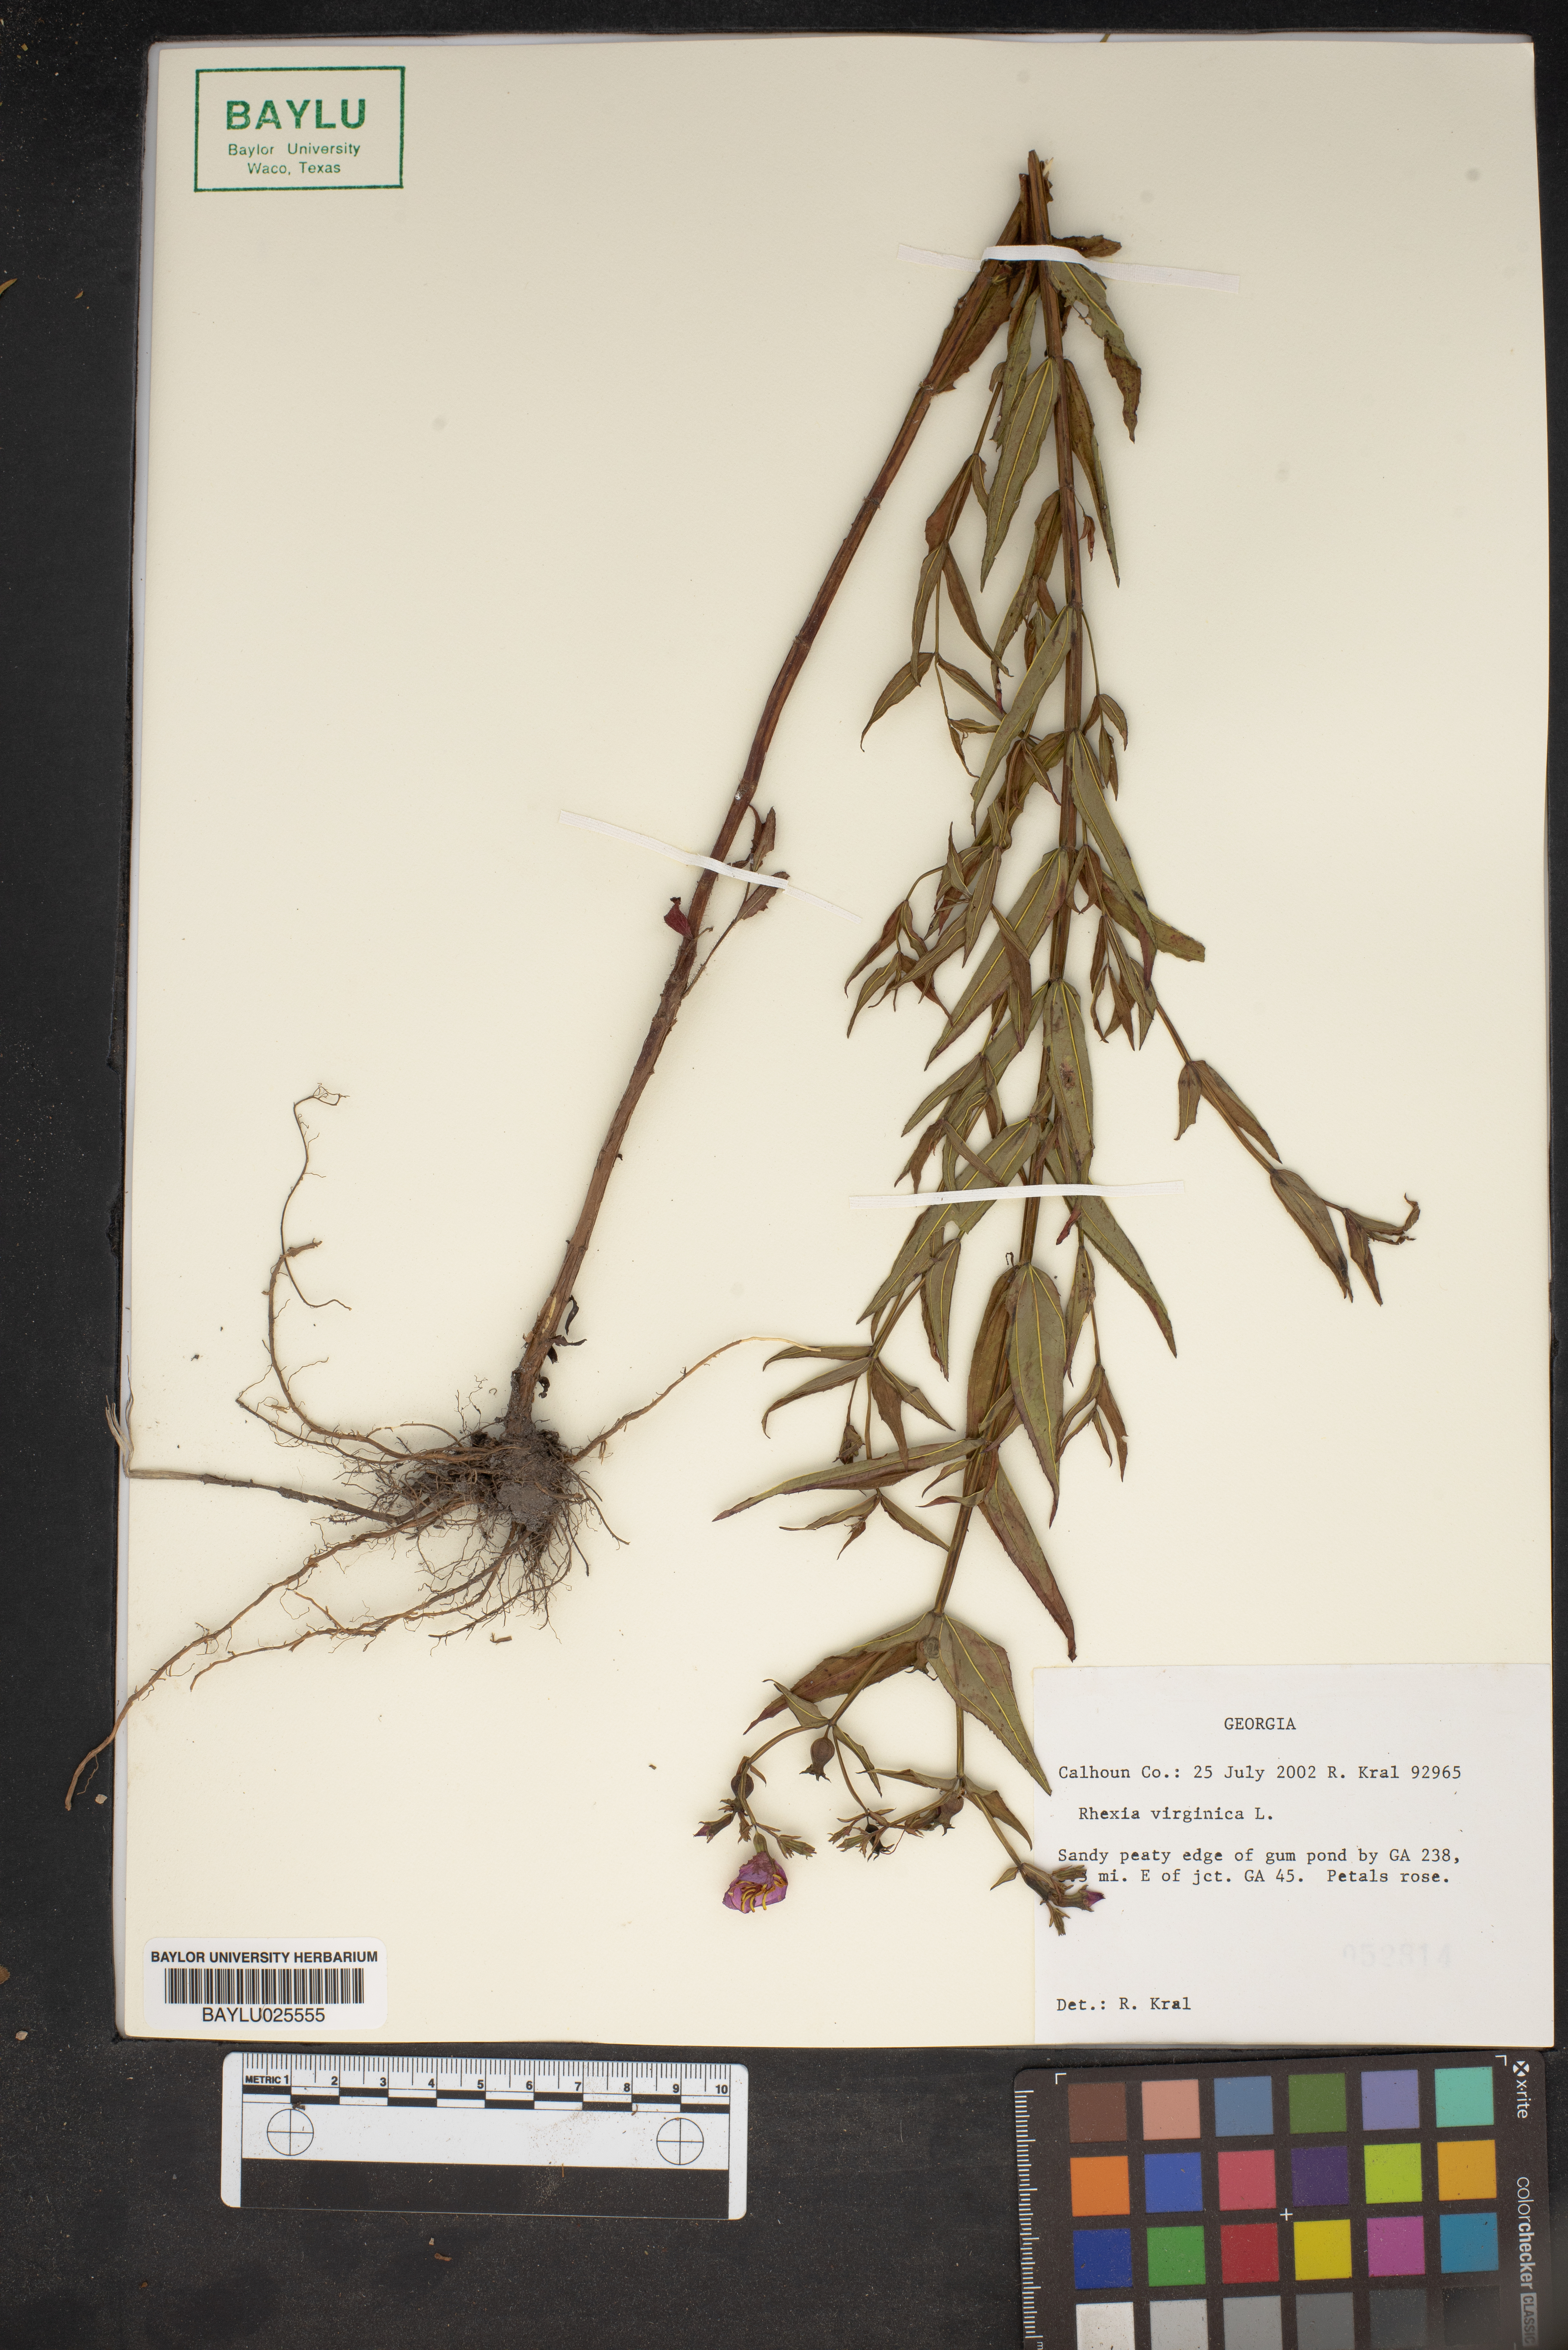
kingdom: Plantae
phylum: Tracheophyta
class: Magnoliopsida
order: Myrtales
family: Melastomataceae
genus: Rhexia
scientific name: Rhexia virginica
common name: Common meadow beauty
